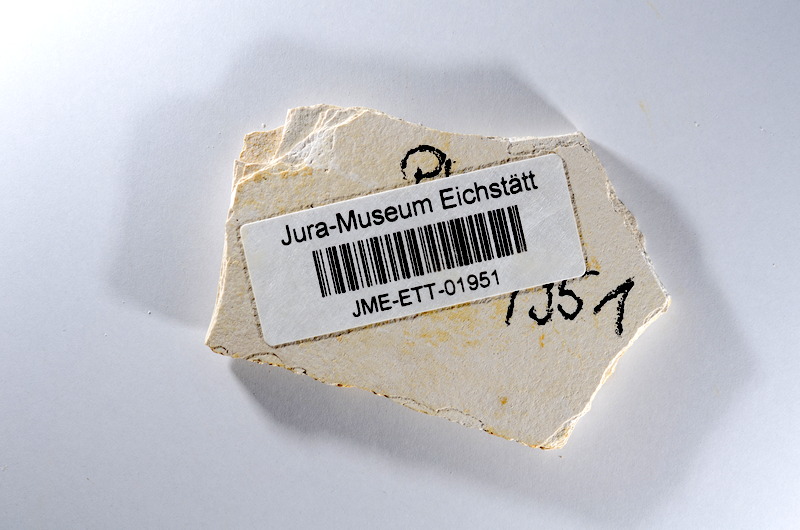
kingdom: Animalia
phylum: Chordata
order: Salmoniformes
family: Orthogonikleithridae
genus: Orthogonikleithrus
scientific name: Orthogonikleithrus hoelli
